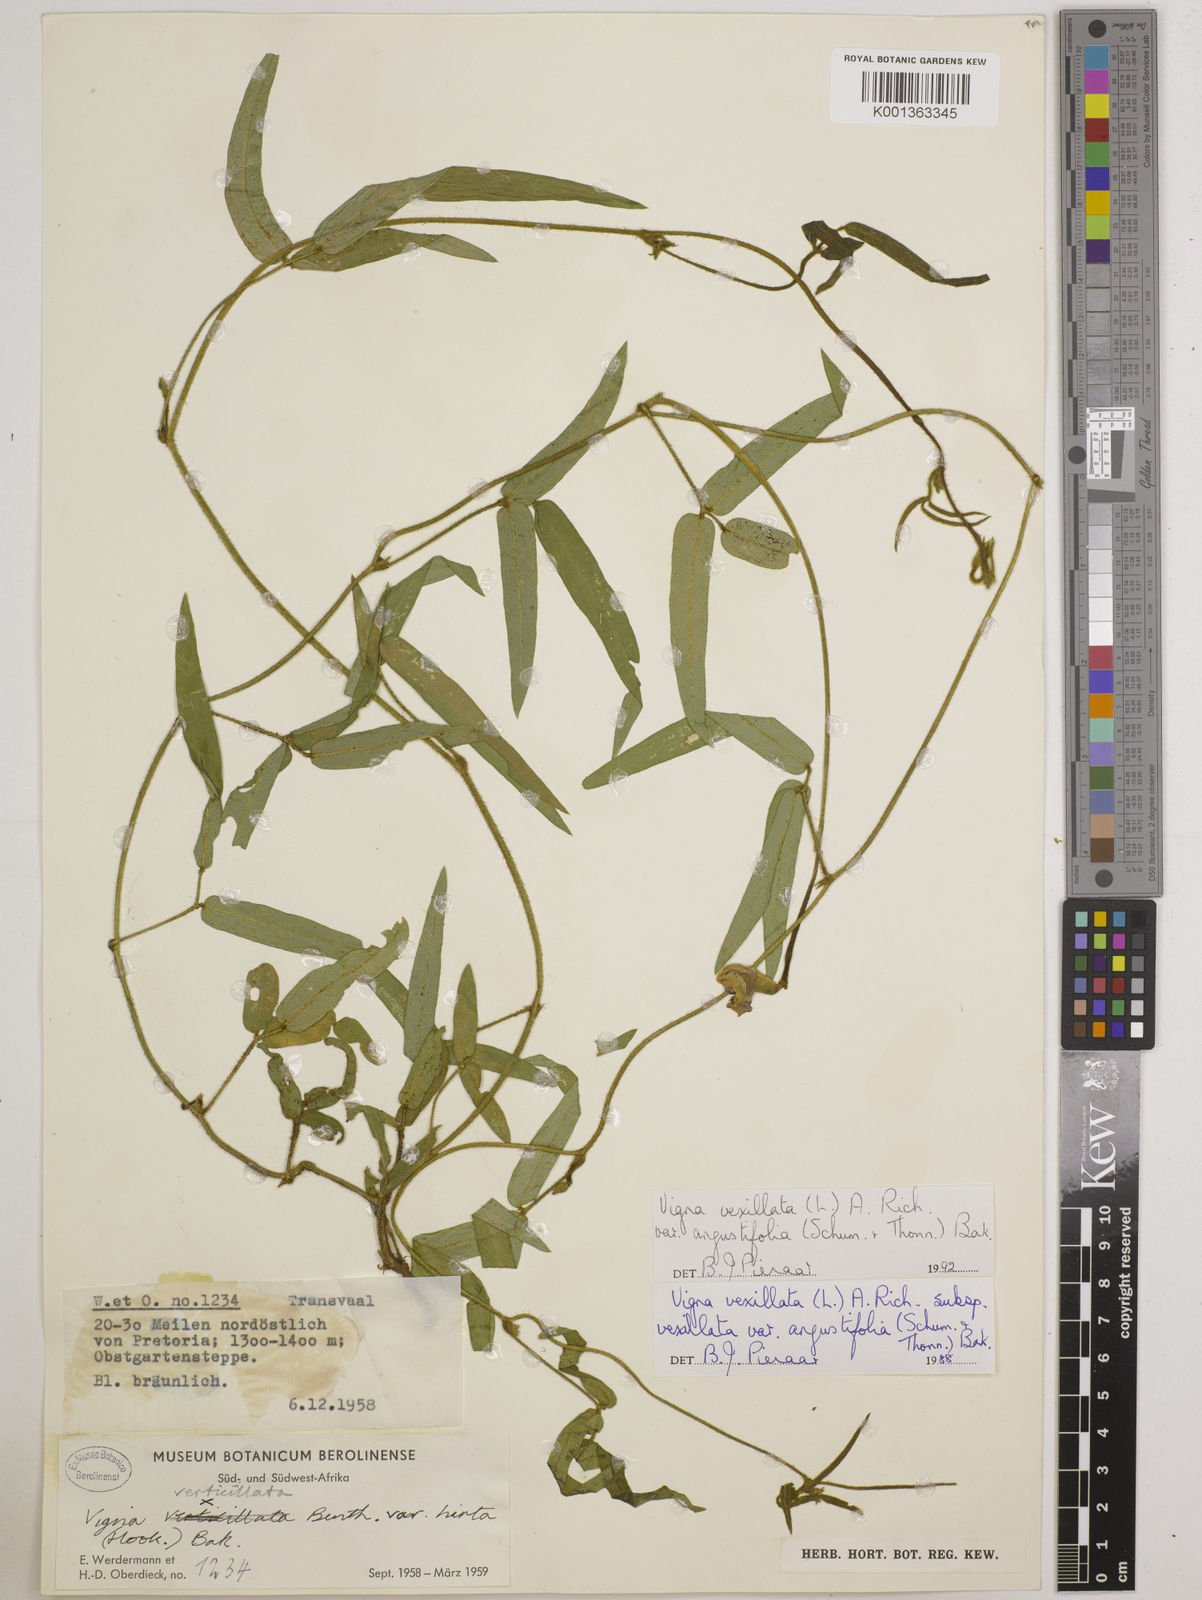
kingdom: Plantae
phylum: Tracheophyta
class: Magnoliopsida
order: Fabales
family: Fabaceae
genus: Vigna
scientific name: Vigna
